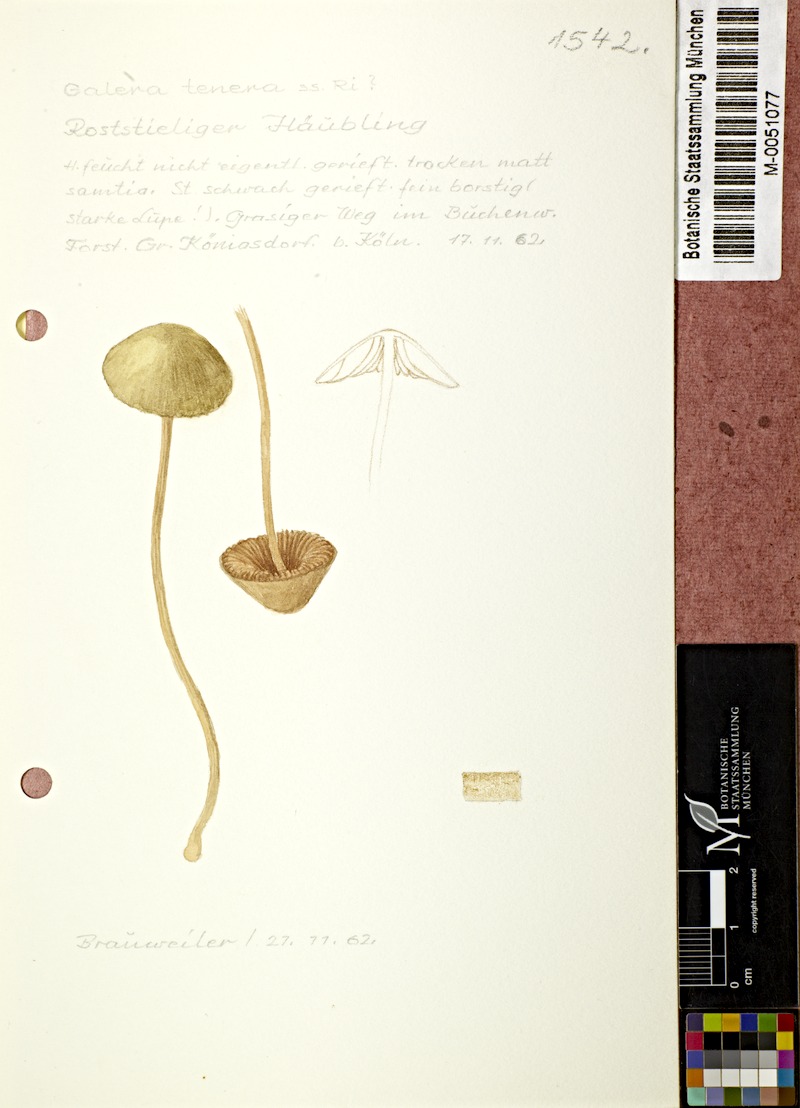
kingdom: Fungi
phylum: Basidiomycota
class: Agaricomycetes
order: Agaricales
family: Bolbitiaceae
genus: Conocybe
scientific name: Conocybe tenera
